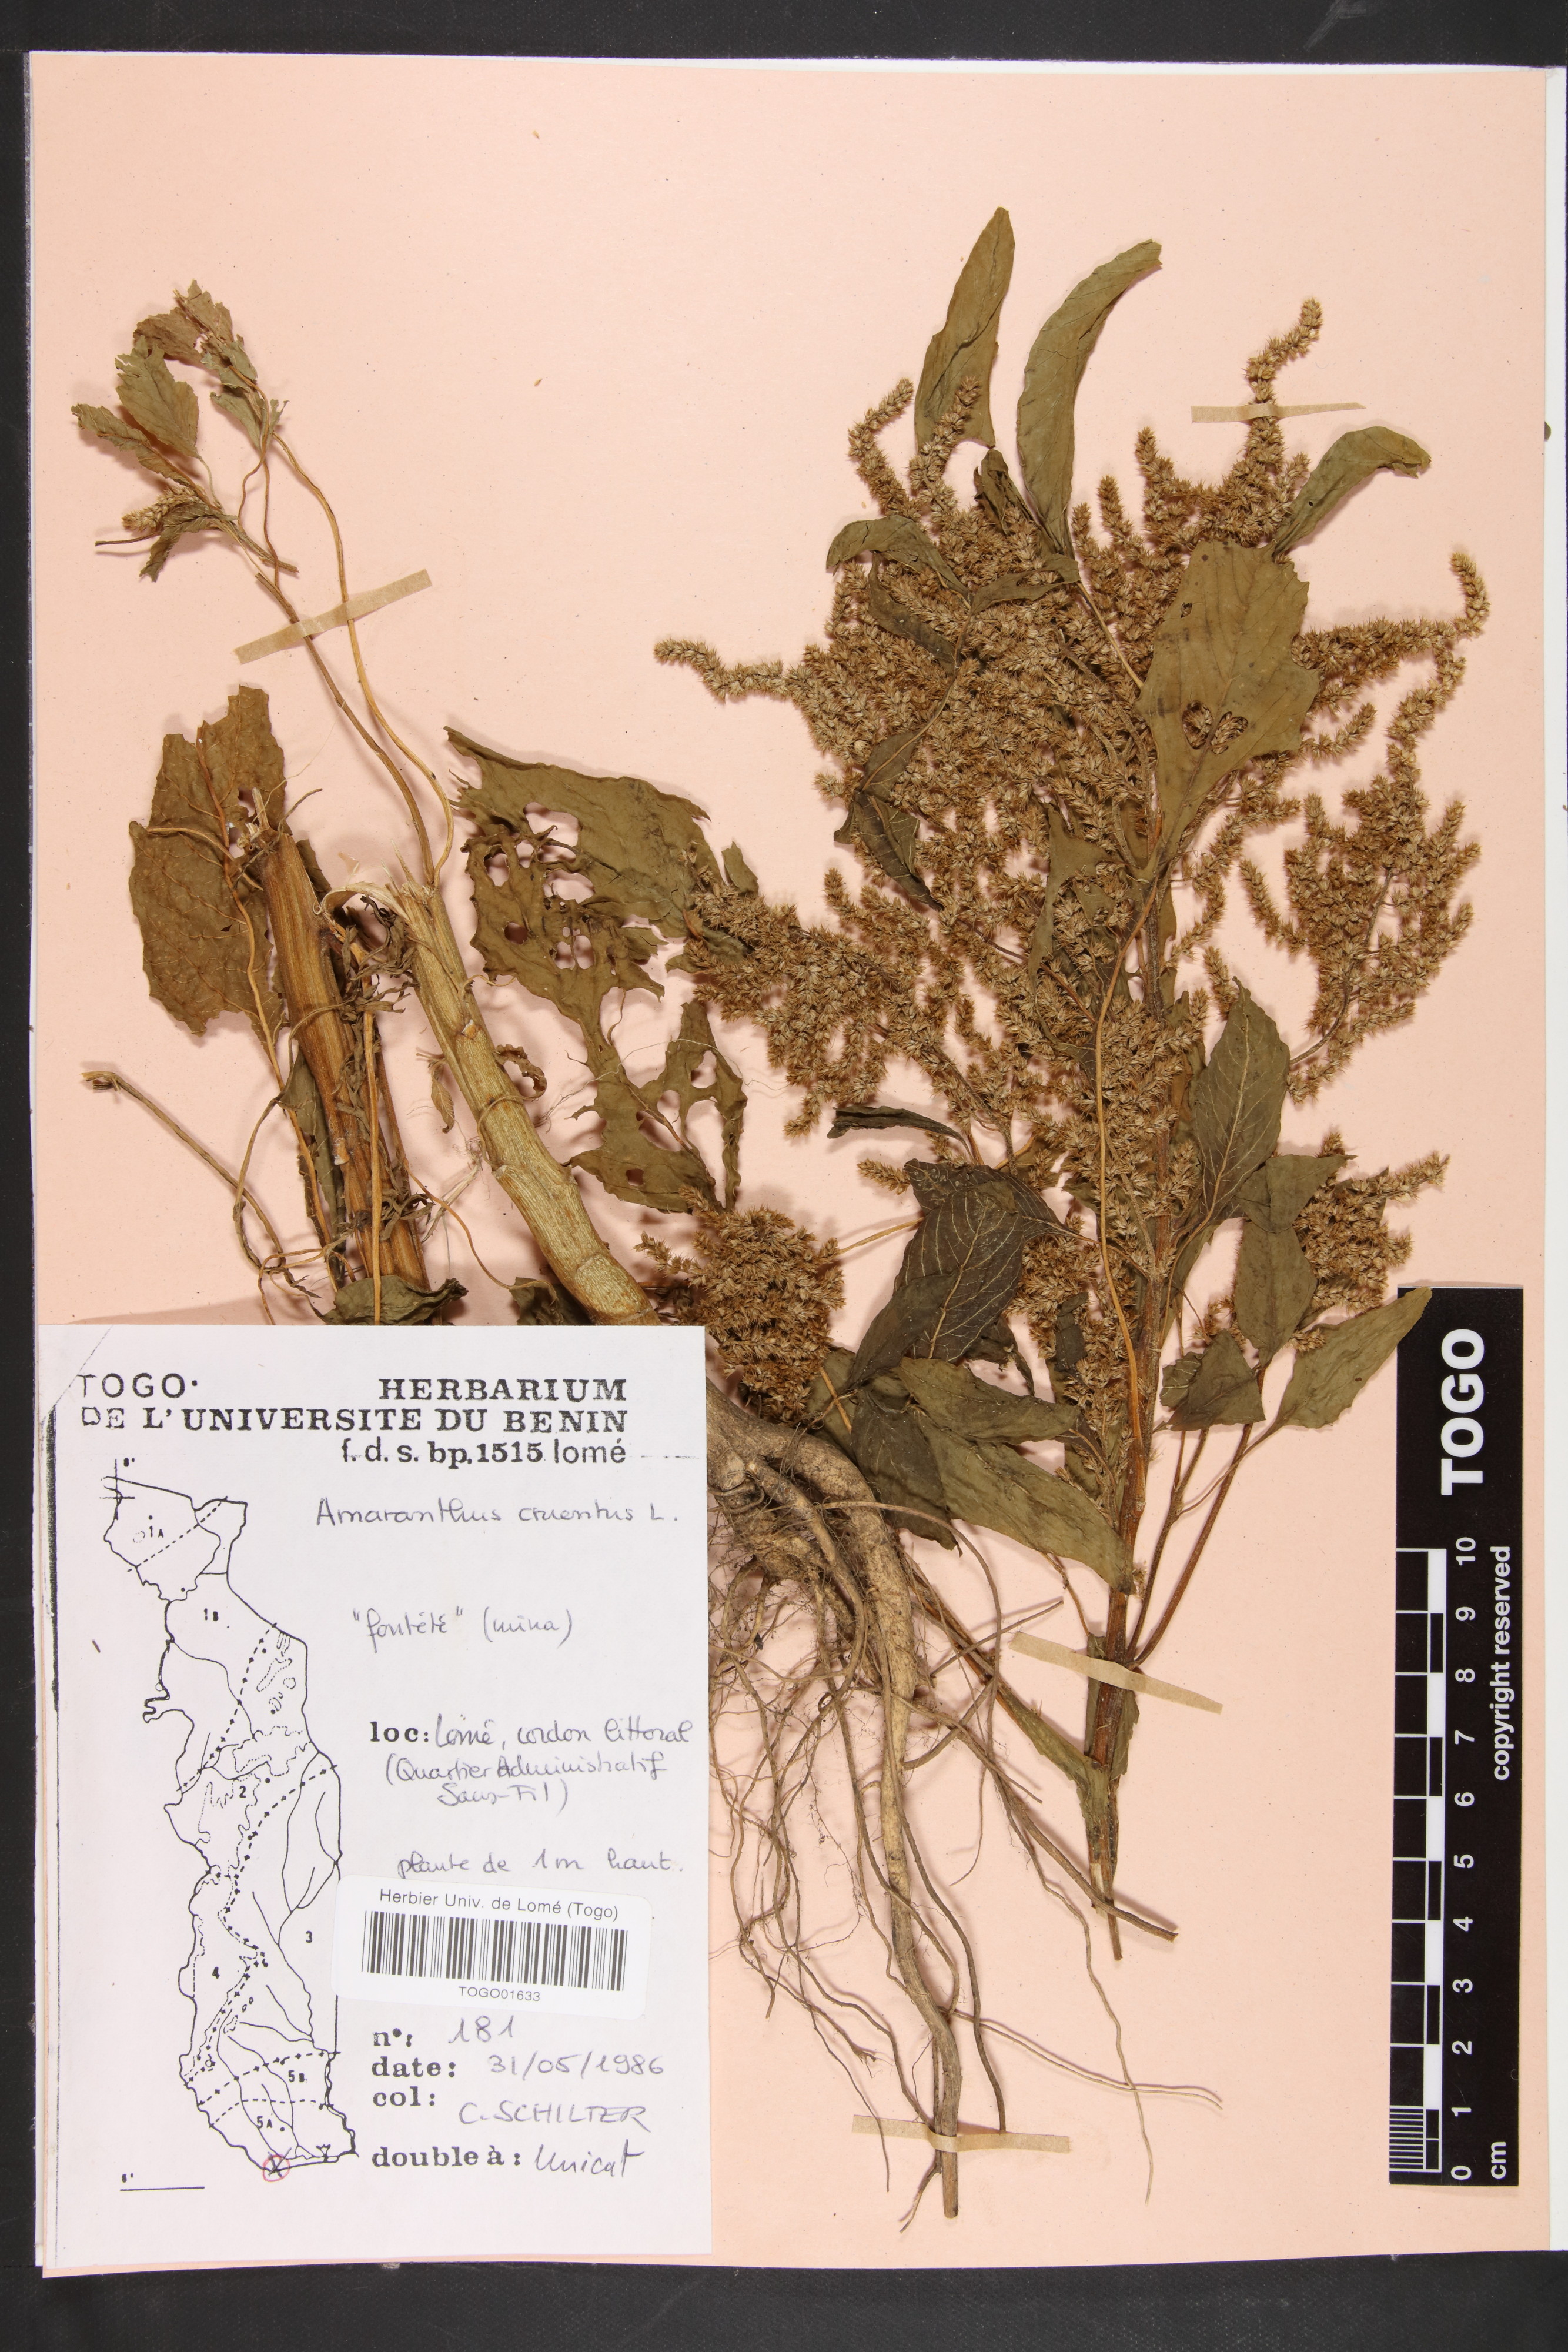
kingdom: Plantae
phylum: Tracheophyta
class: Magnoliopsida
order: Caryophyllales
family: Amaranthaceae
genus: Amaranthus
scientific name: Amaranthus cruentus
